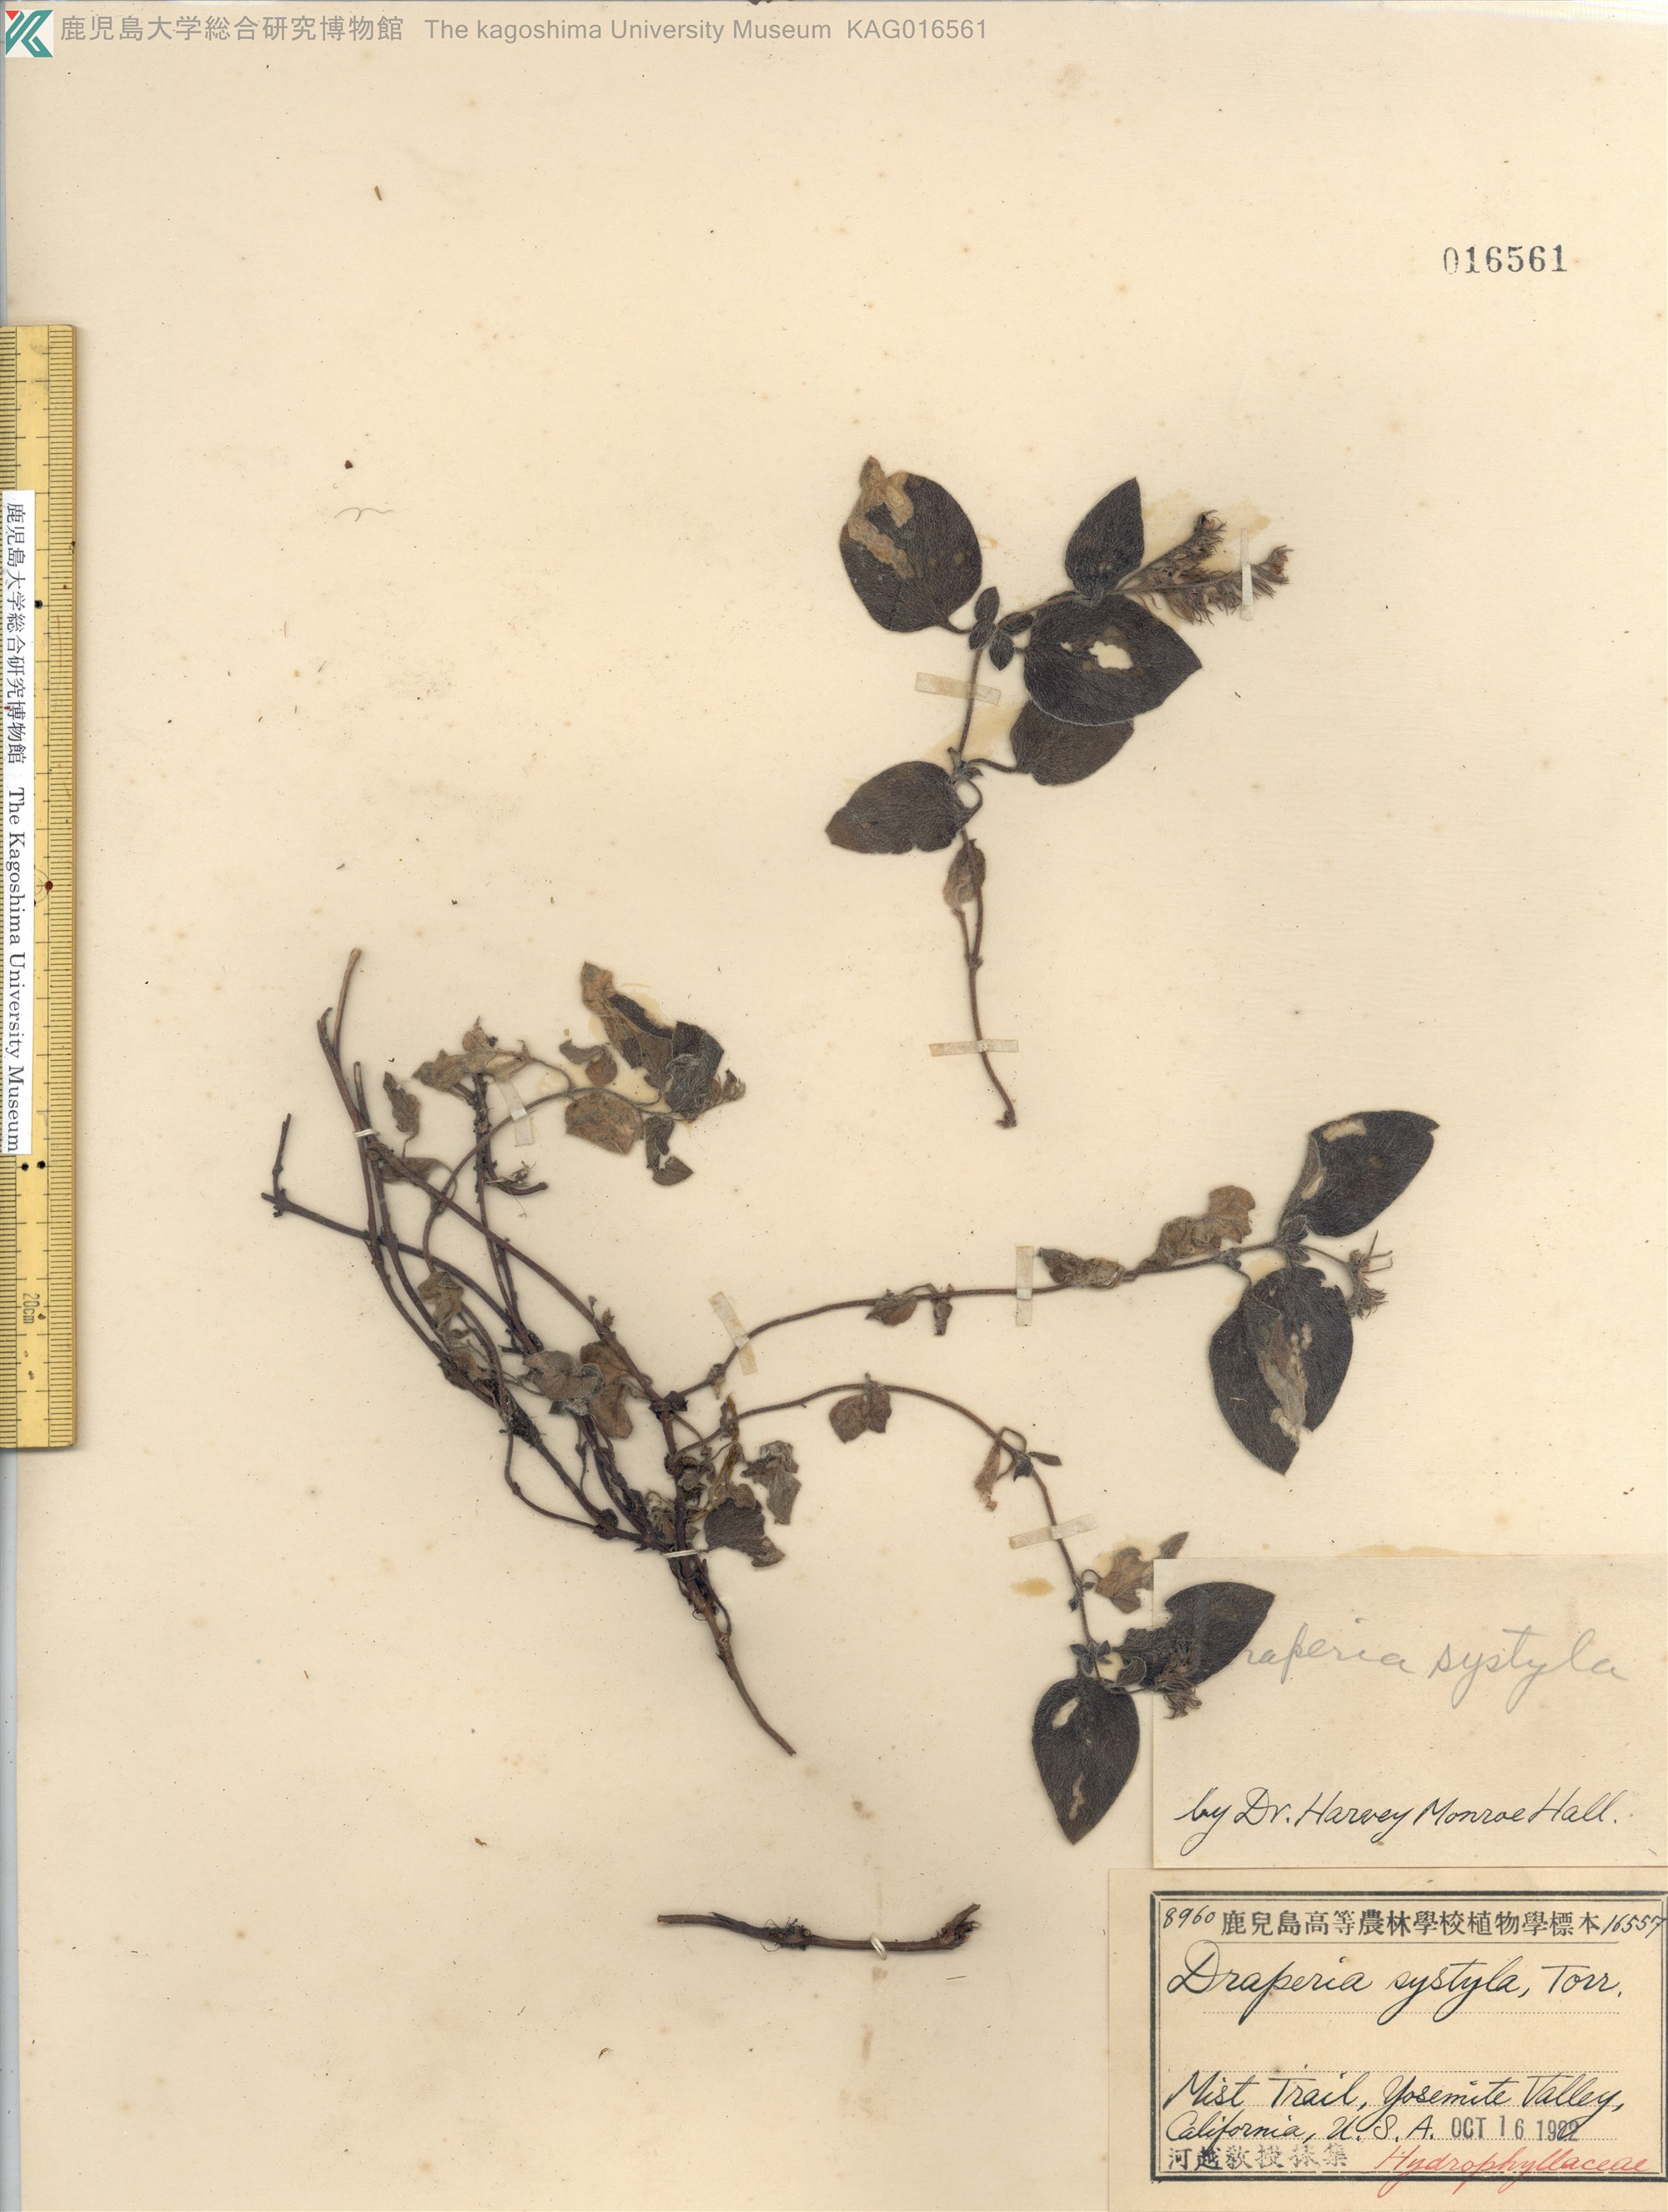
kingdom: Plantae
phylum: Tracheophyta
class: Magnoliopsida
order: Boraginales
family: Hydrophyllaceae
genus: Draperia
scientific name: Draperia systyla
